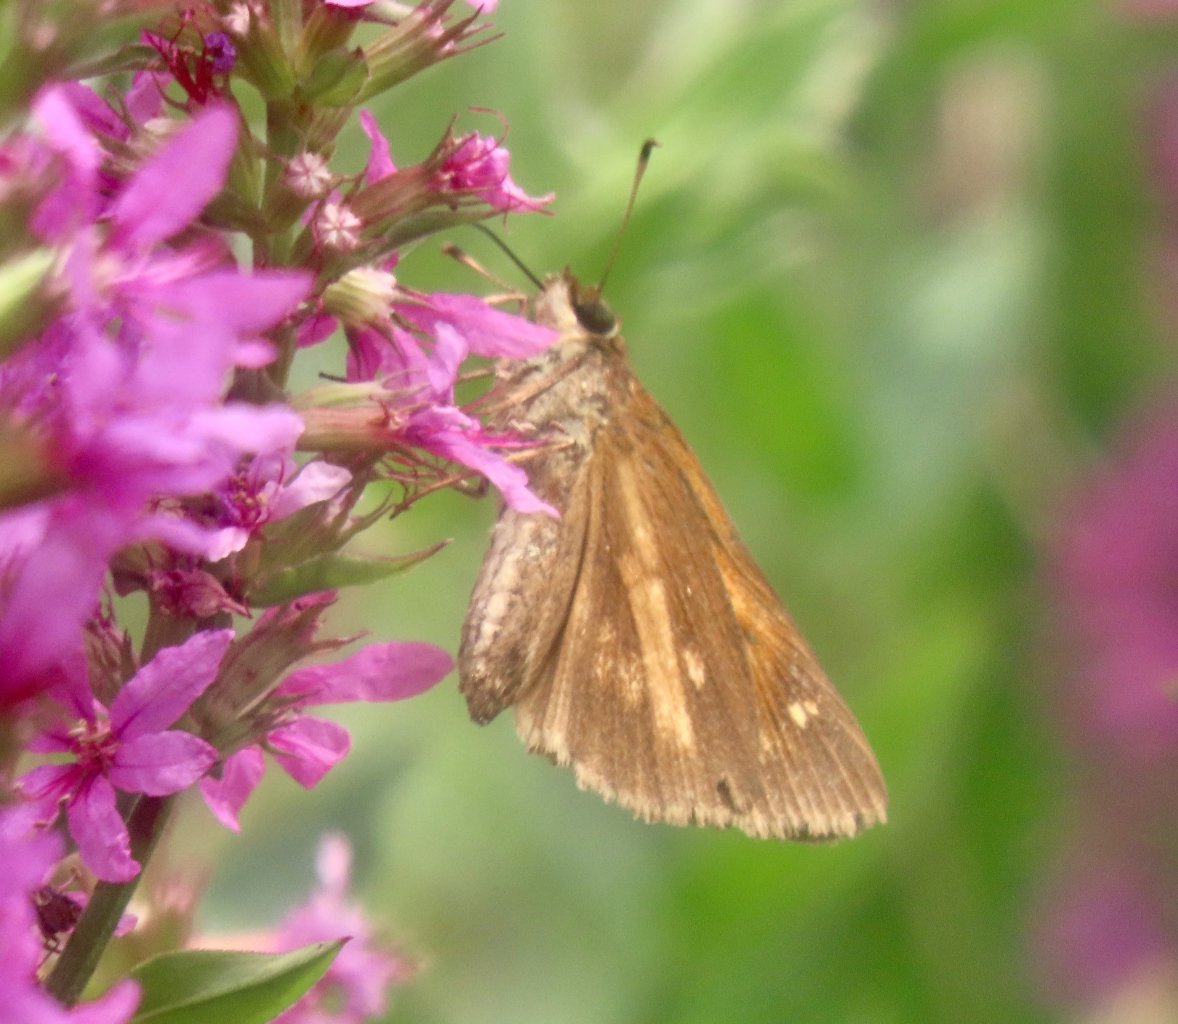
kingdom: Animalia
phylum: Arthropoda
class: Insecta
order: Lepidoptera
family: Hesperiidae
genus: Poanes
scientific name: Poanes viator
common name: Broad-winged Skipper
